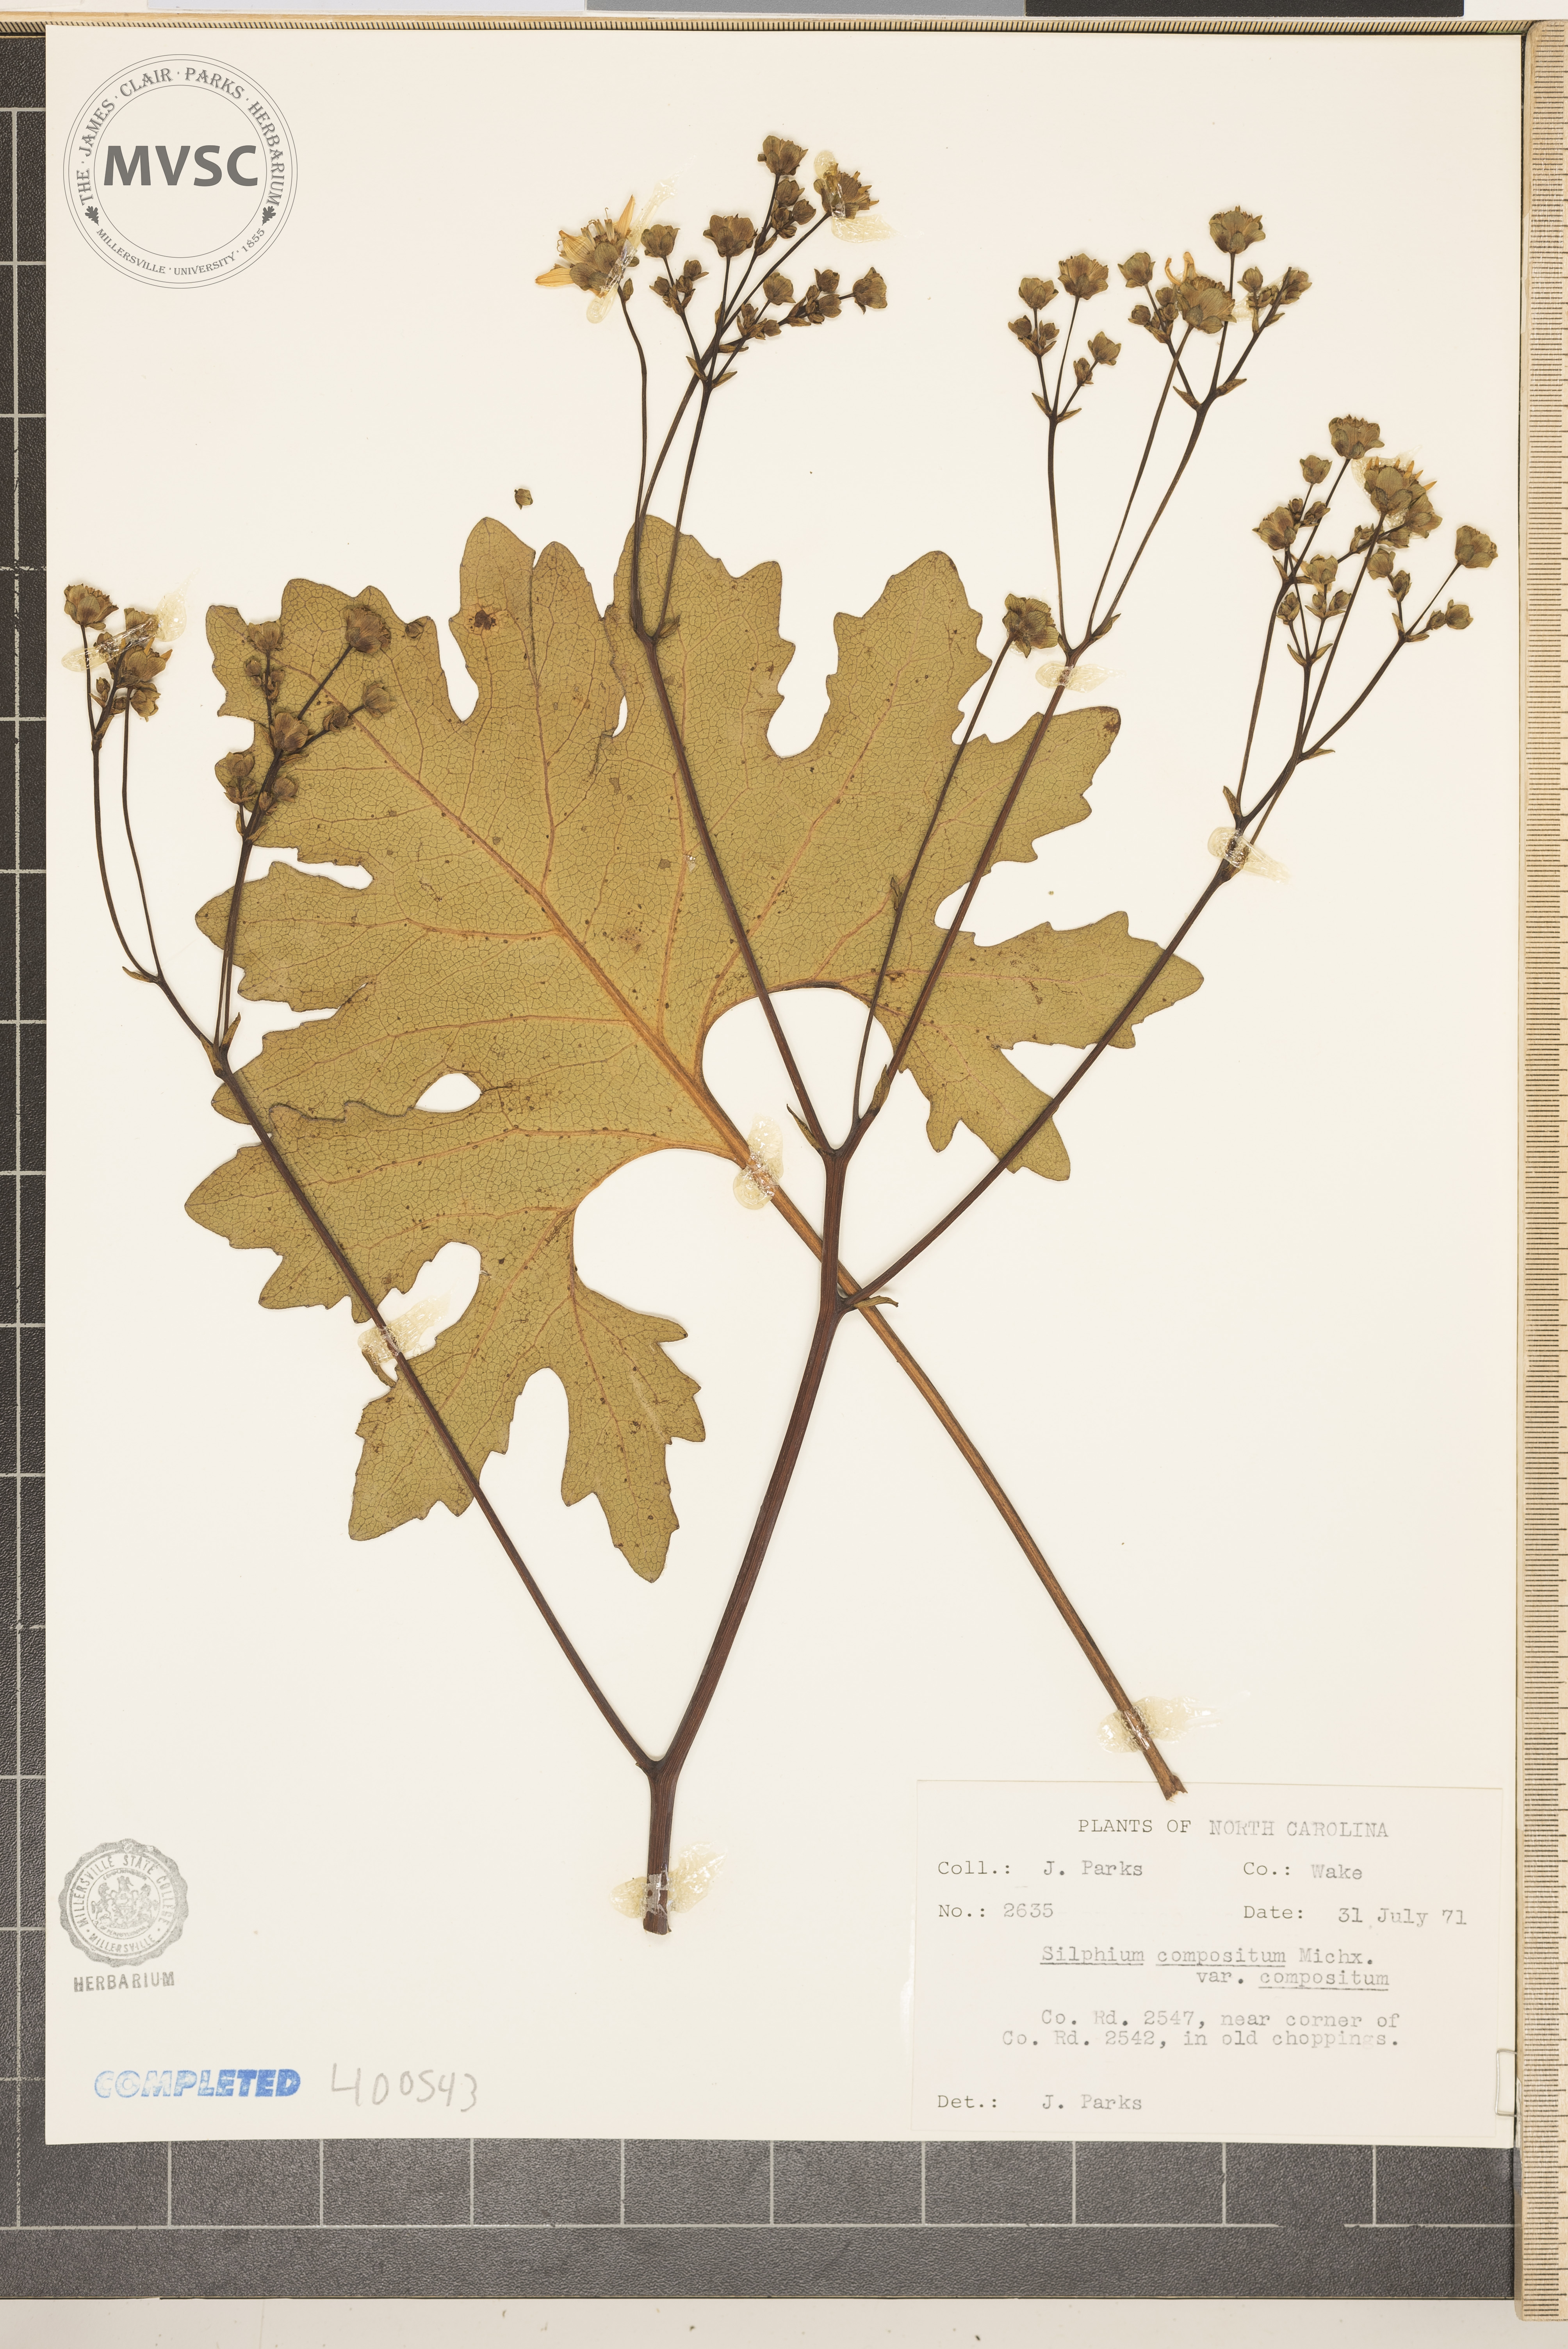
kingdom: Plantae
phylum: Tracheophyta
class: Magnoliopsida
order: Asterales
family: Asteraceae
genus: Silphium
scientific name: Silphium compositum
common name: Lesser basal-leaf rosinweed
